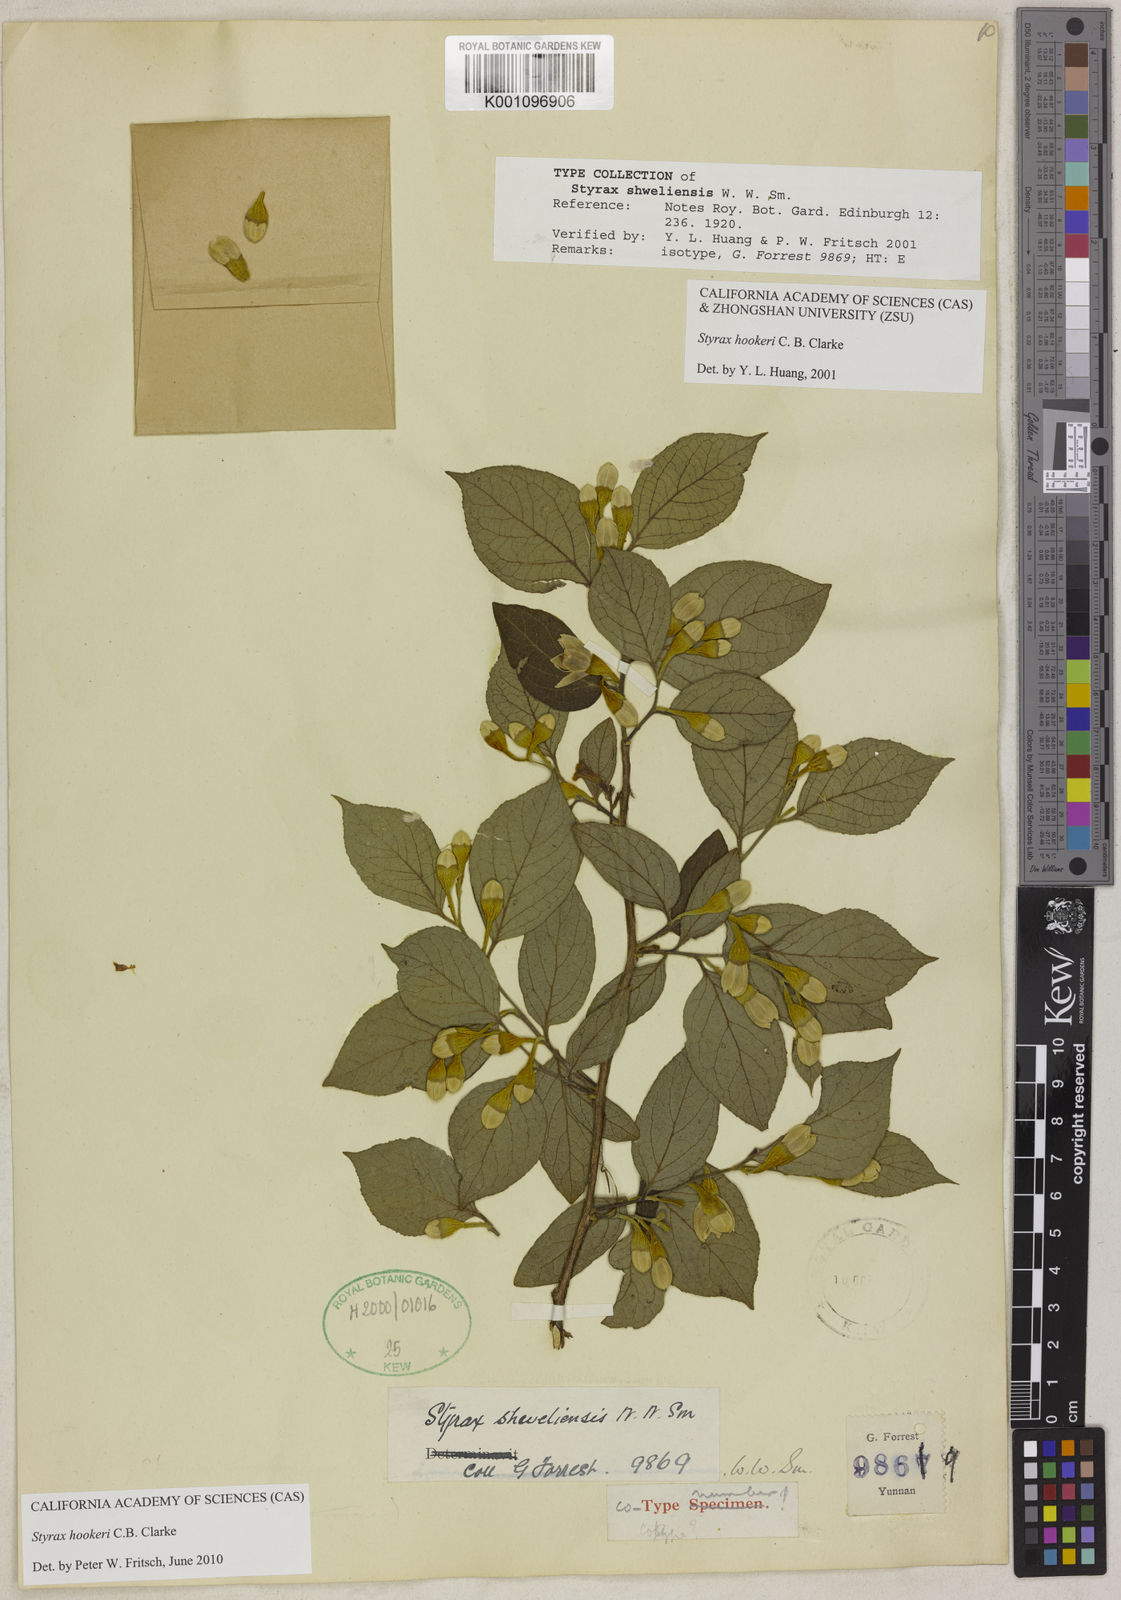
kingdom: Plantae
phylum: Tracheophyta
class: Magnoliopsida
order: Ericales
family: Styracaceae
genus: Styrax
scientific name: Styrax hookeri
